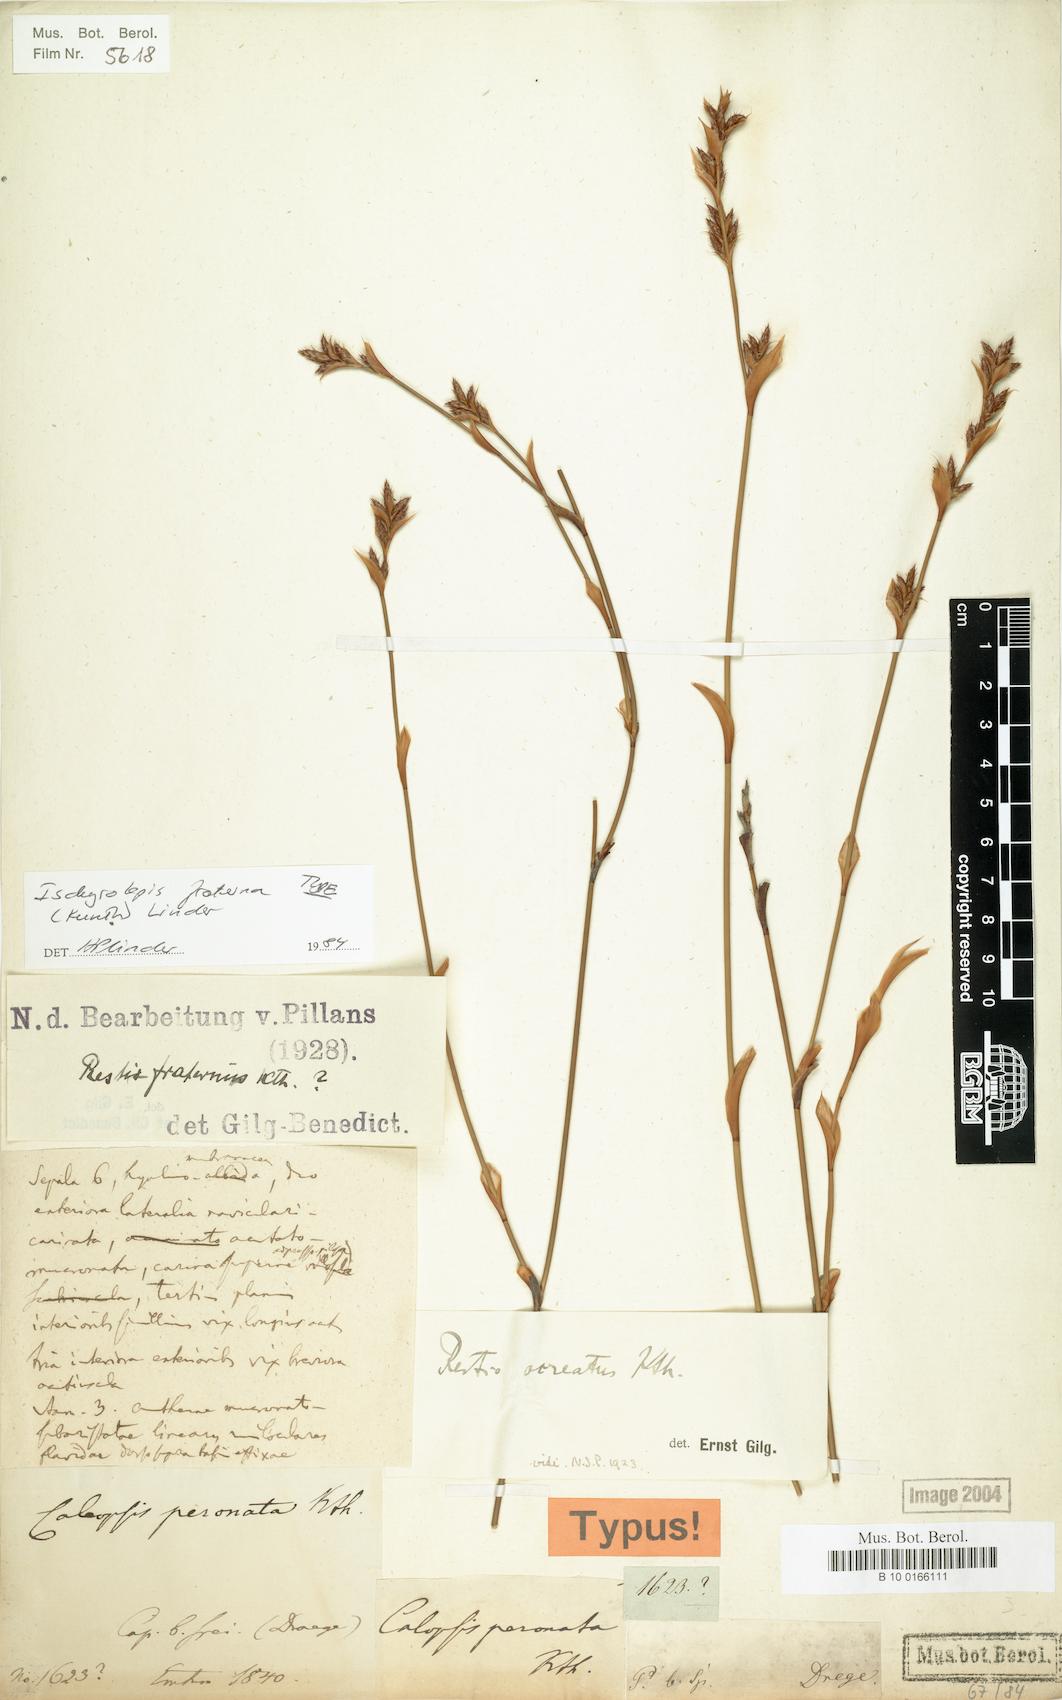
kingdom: Plantae
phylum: Tracheophyta
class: Liliopsida
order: Poales
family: Restionaceae
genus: Restio
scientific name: Restio fraternus
